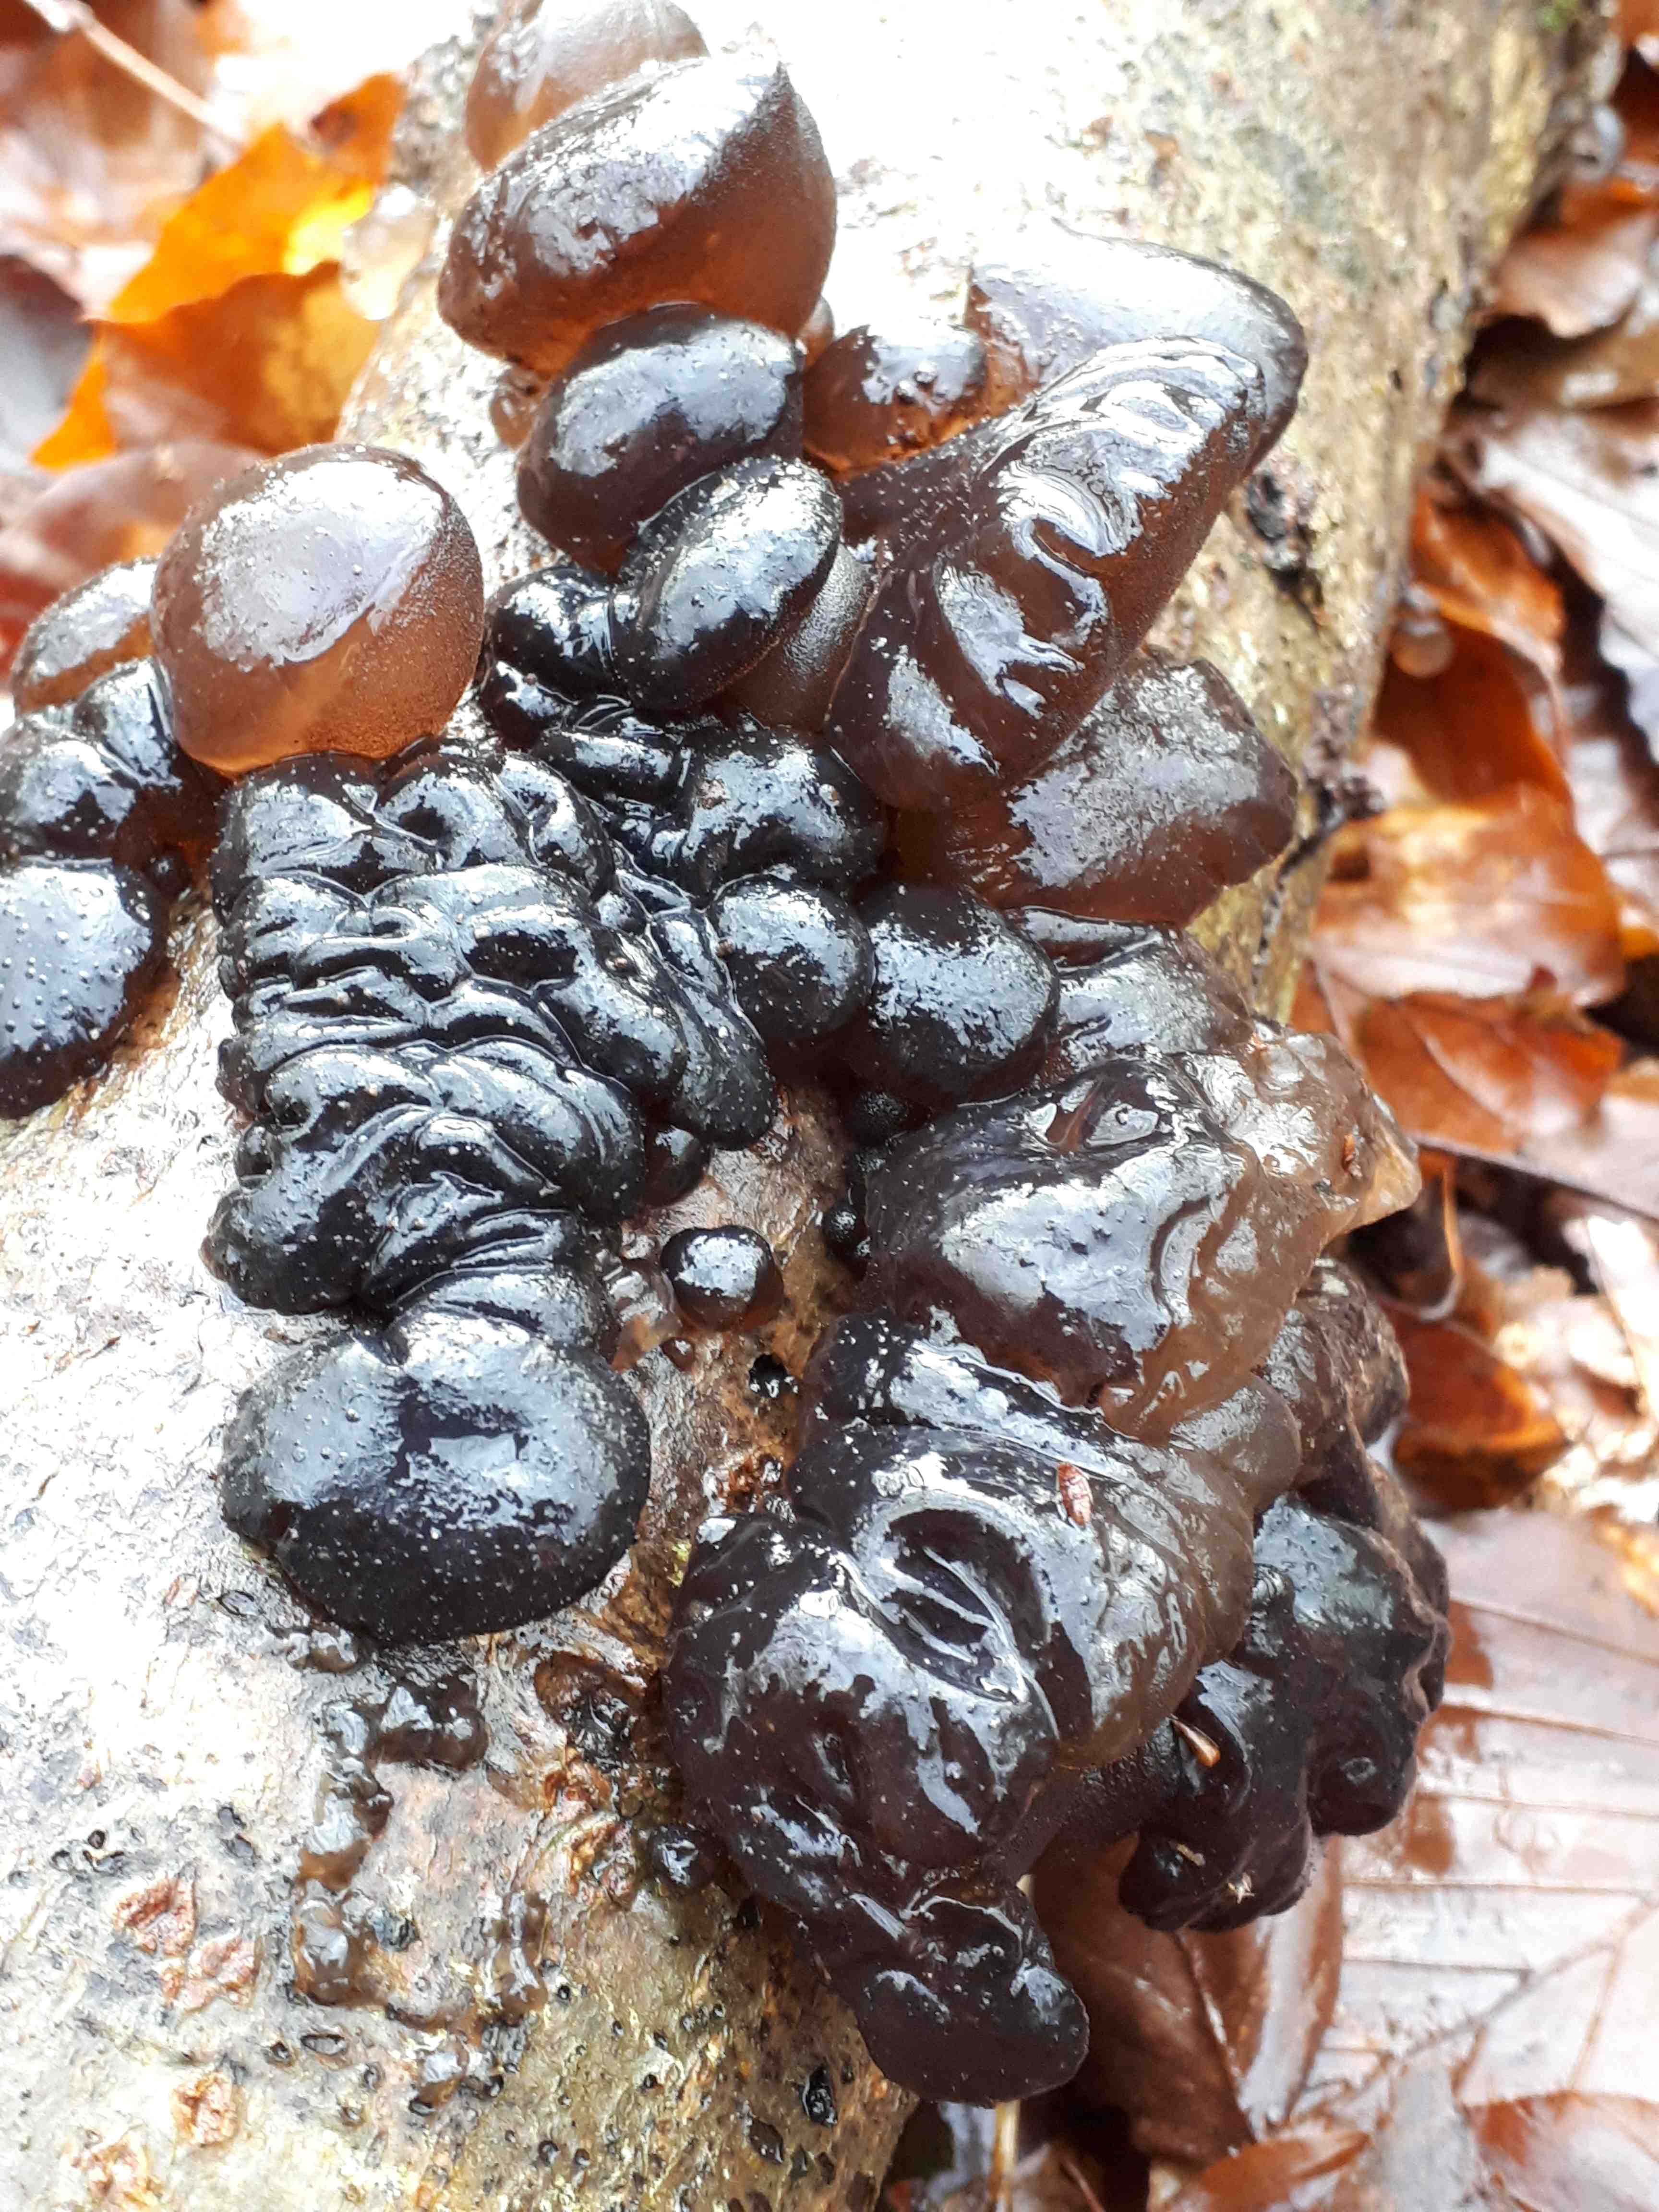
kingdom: Fungi
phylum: Basidiomycota
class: Agaricomycetes
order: Auriculariales
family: Auriculariaceae
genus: Exidia
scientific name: Exidia nigricans
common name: almindelig bævretop
